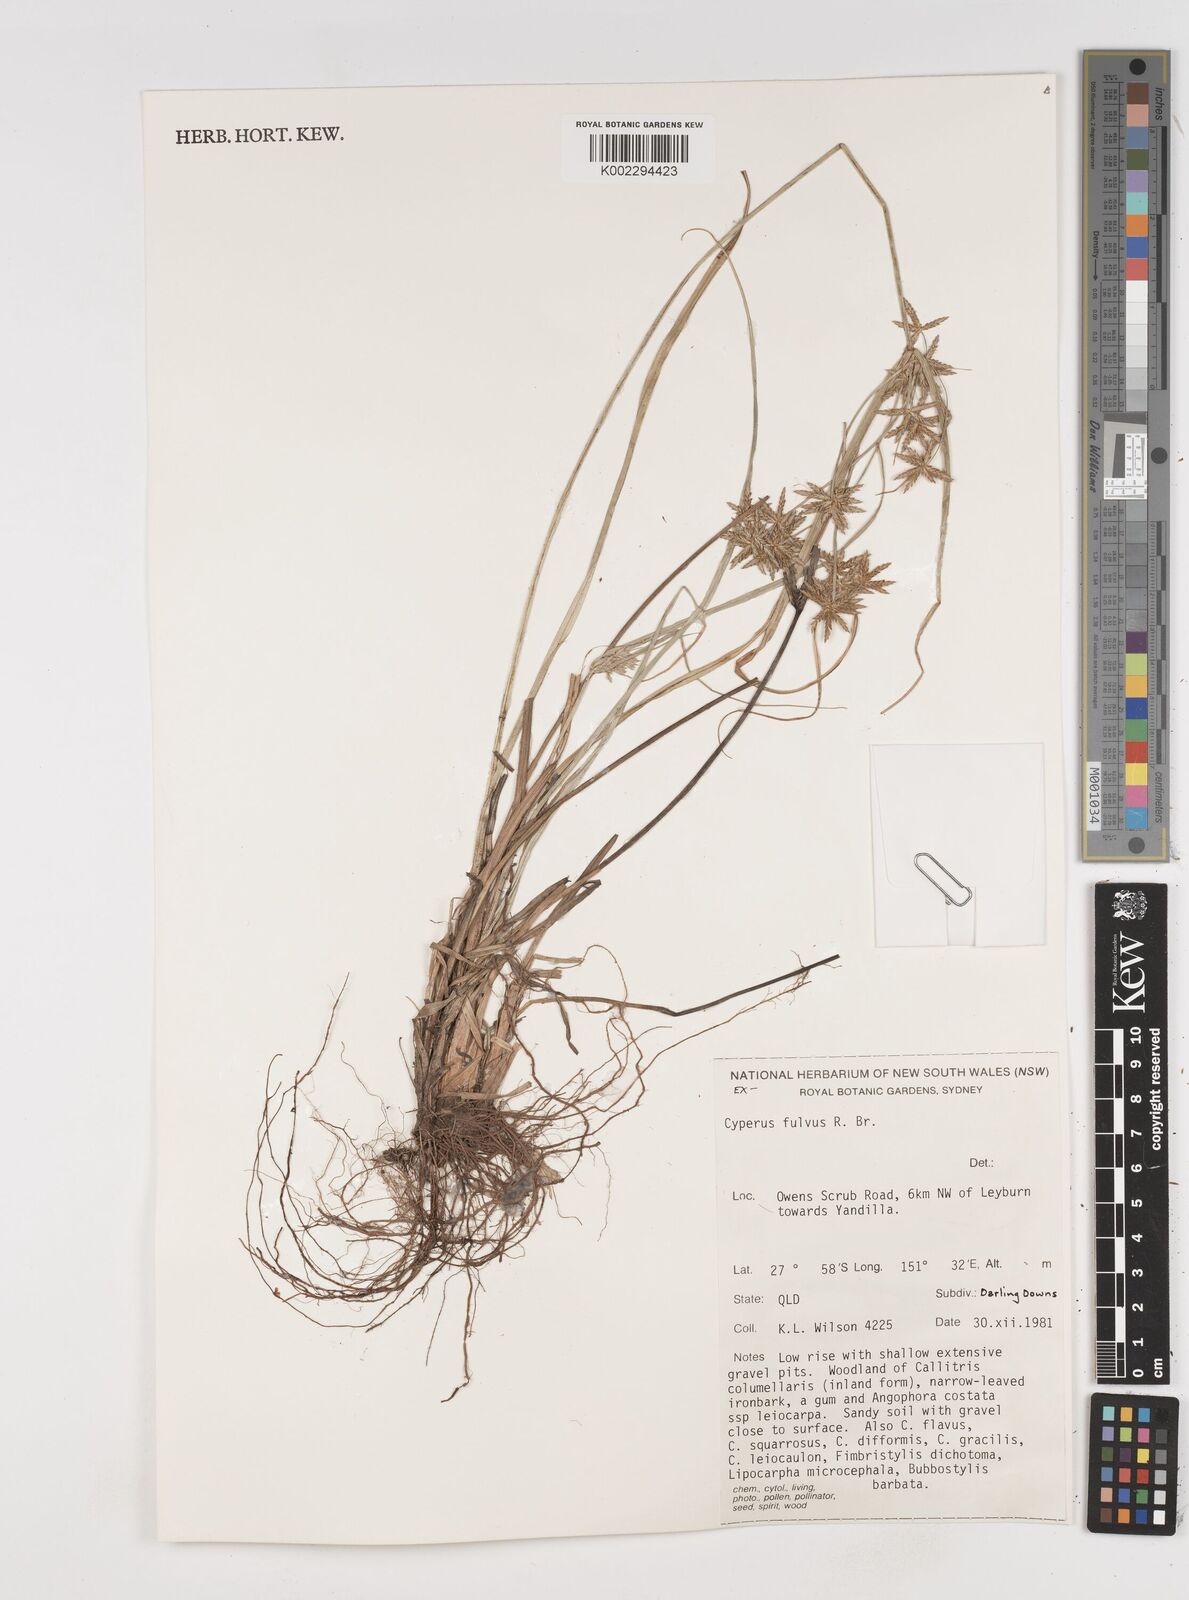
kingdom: Plantae
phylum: Tracheophyta
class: Liliopsida
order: Poales
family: Cyperaceae
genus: Cyperus
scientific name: Cyperus fulvus
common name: Sticky sedge
